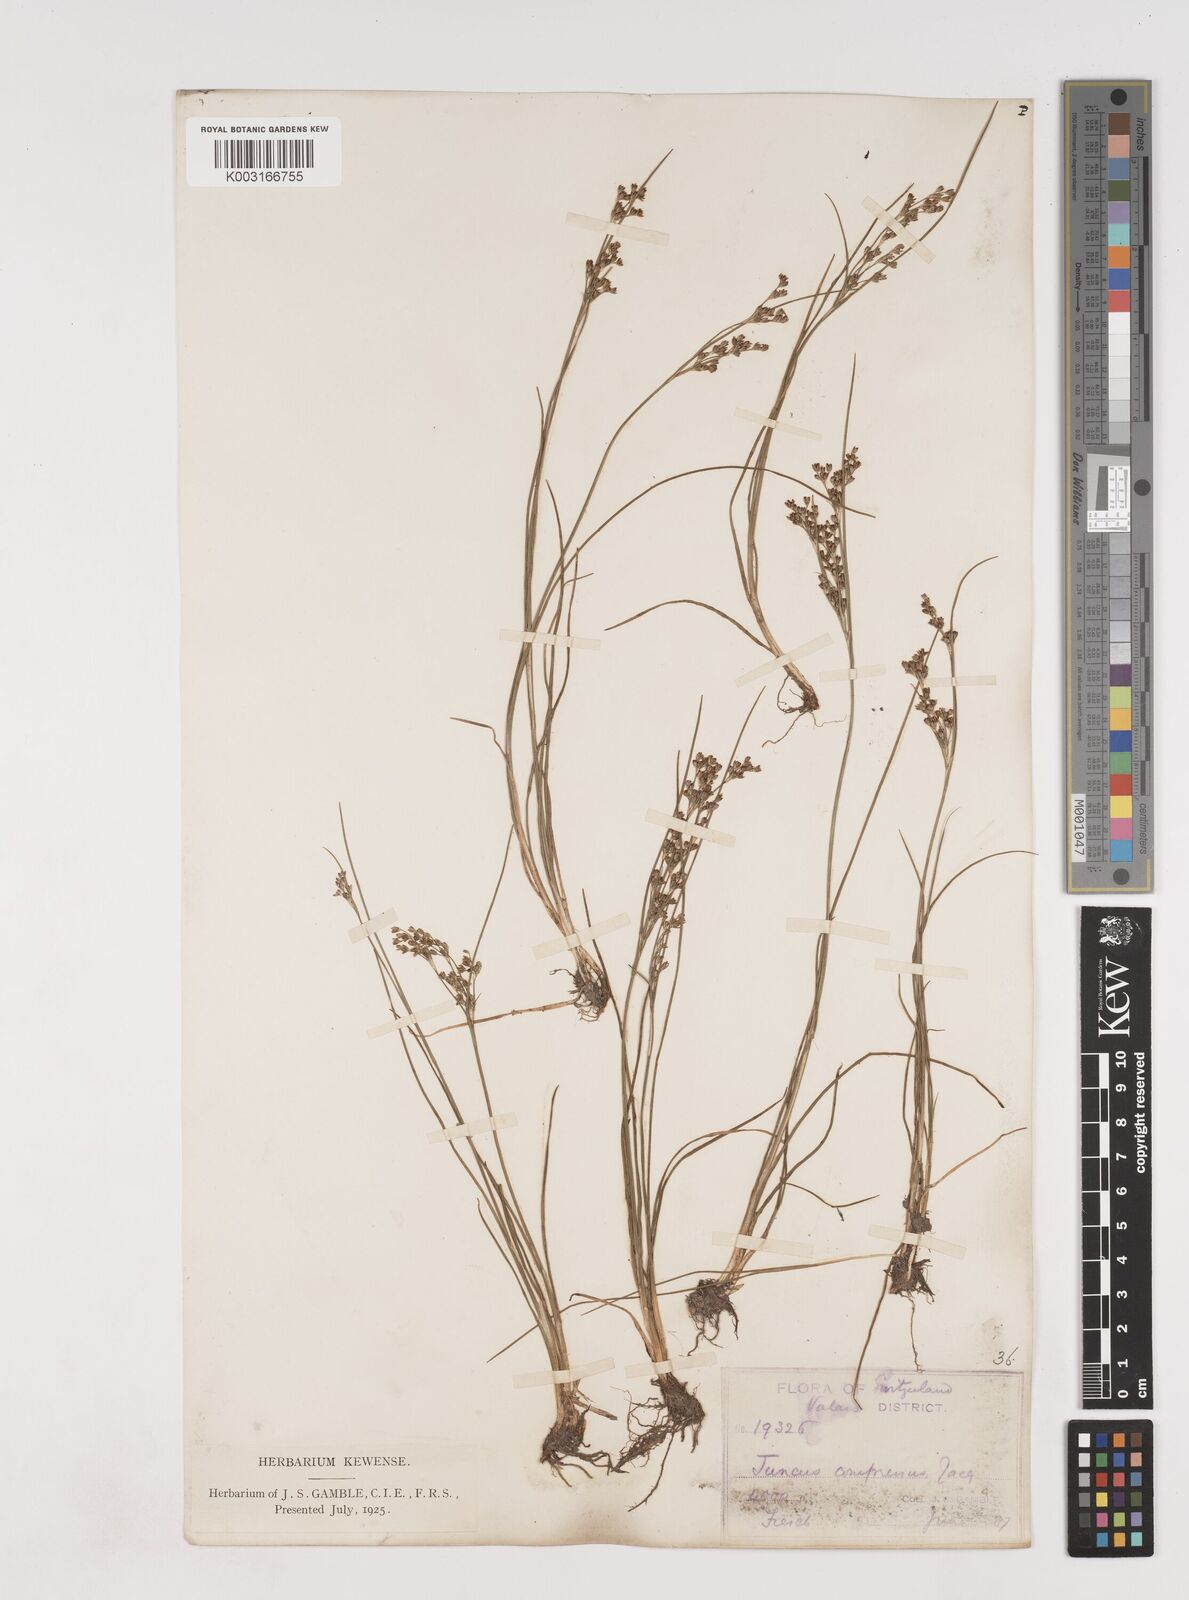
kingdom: Plantae
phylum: Tracheophyta
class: Liliopsida
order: Poales
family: Juncaceae
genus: Juncus
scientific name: Juncus
